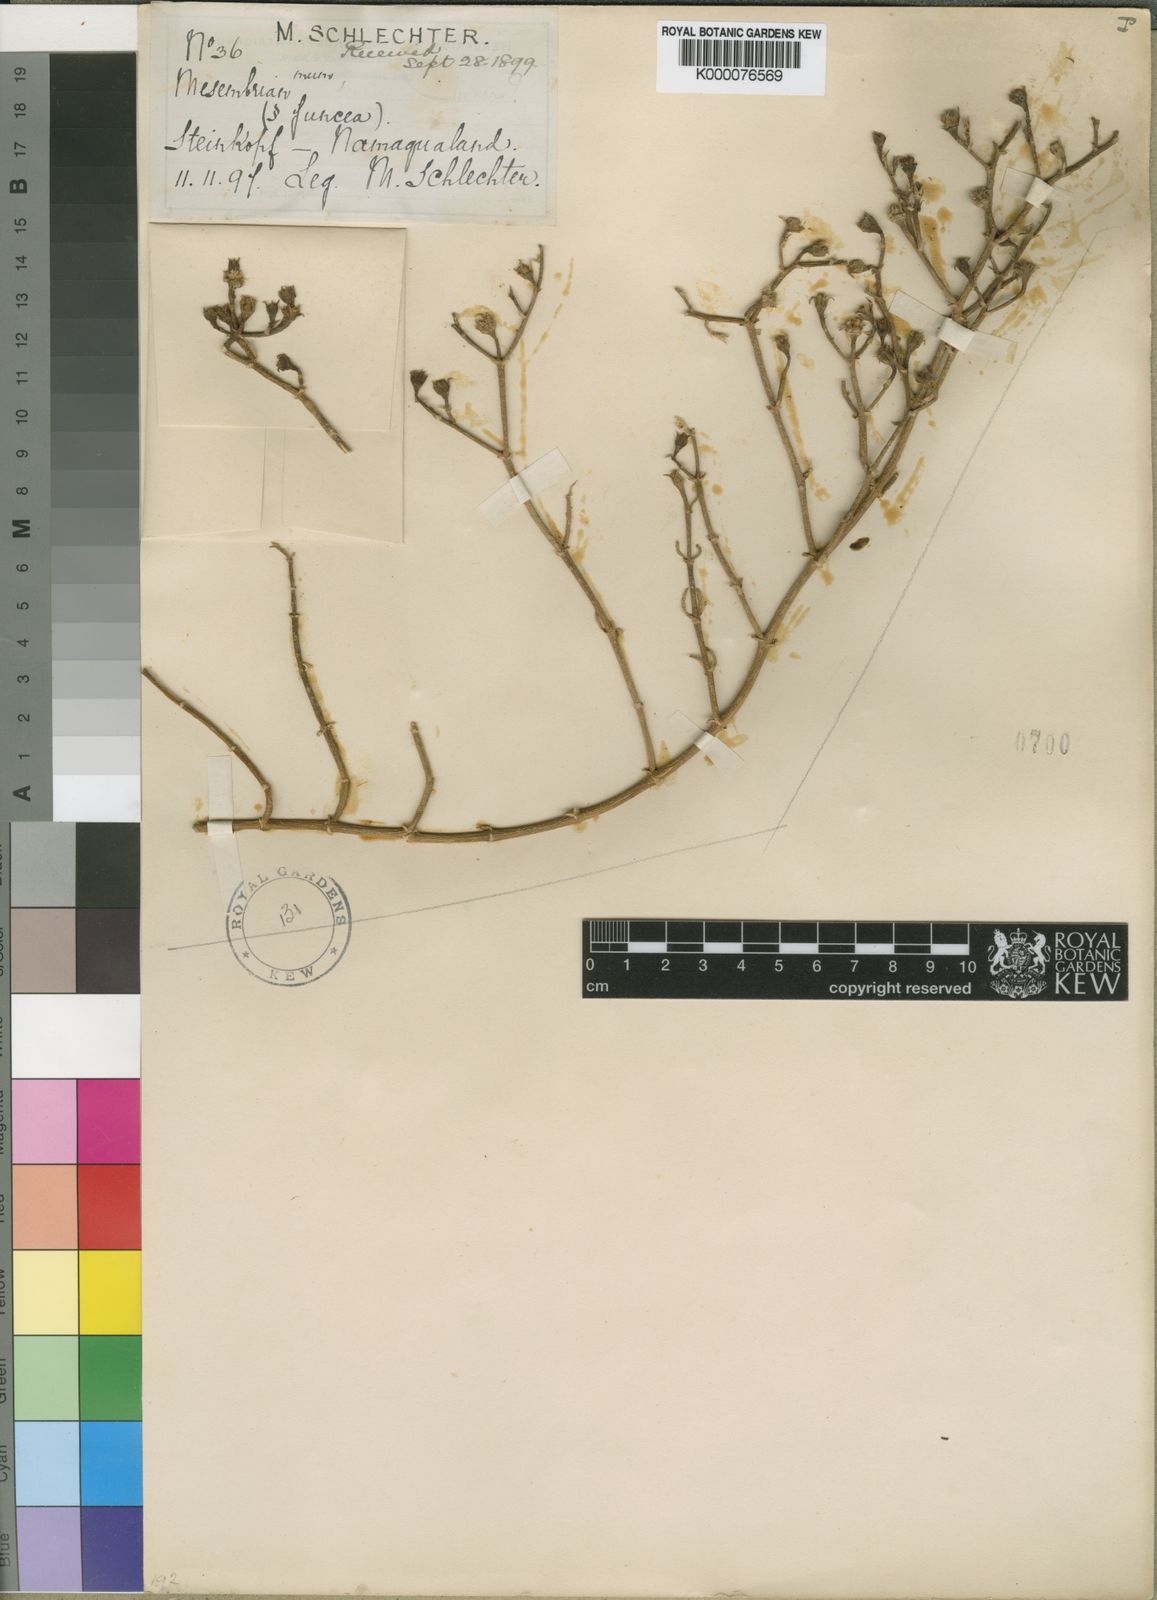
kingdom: Plantae
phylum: Tracheophyta
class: Magnoliopsida
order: Caryophyllales
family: Aizoaceae
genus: Mesembryanthemum
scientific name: Mesembryanthemum junceum
